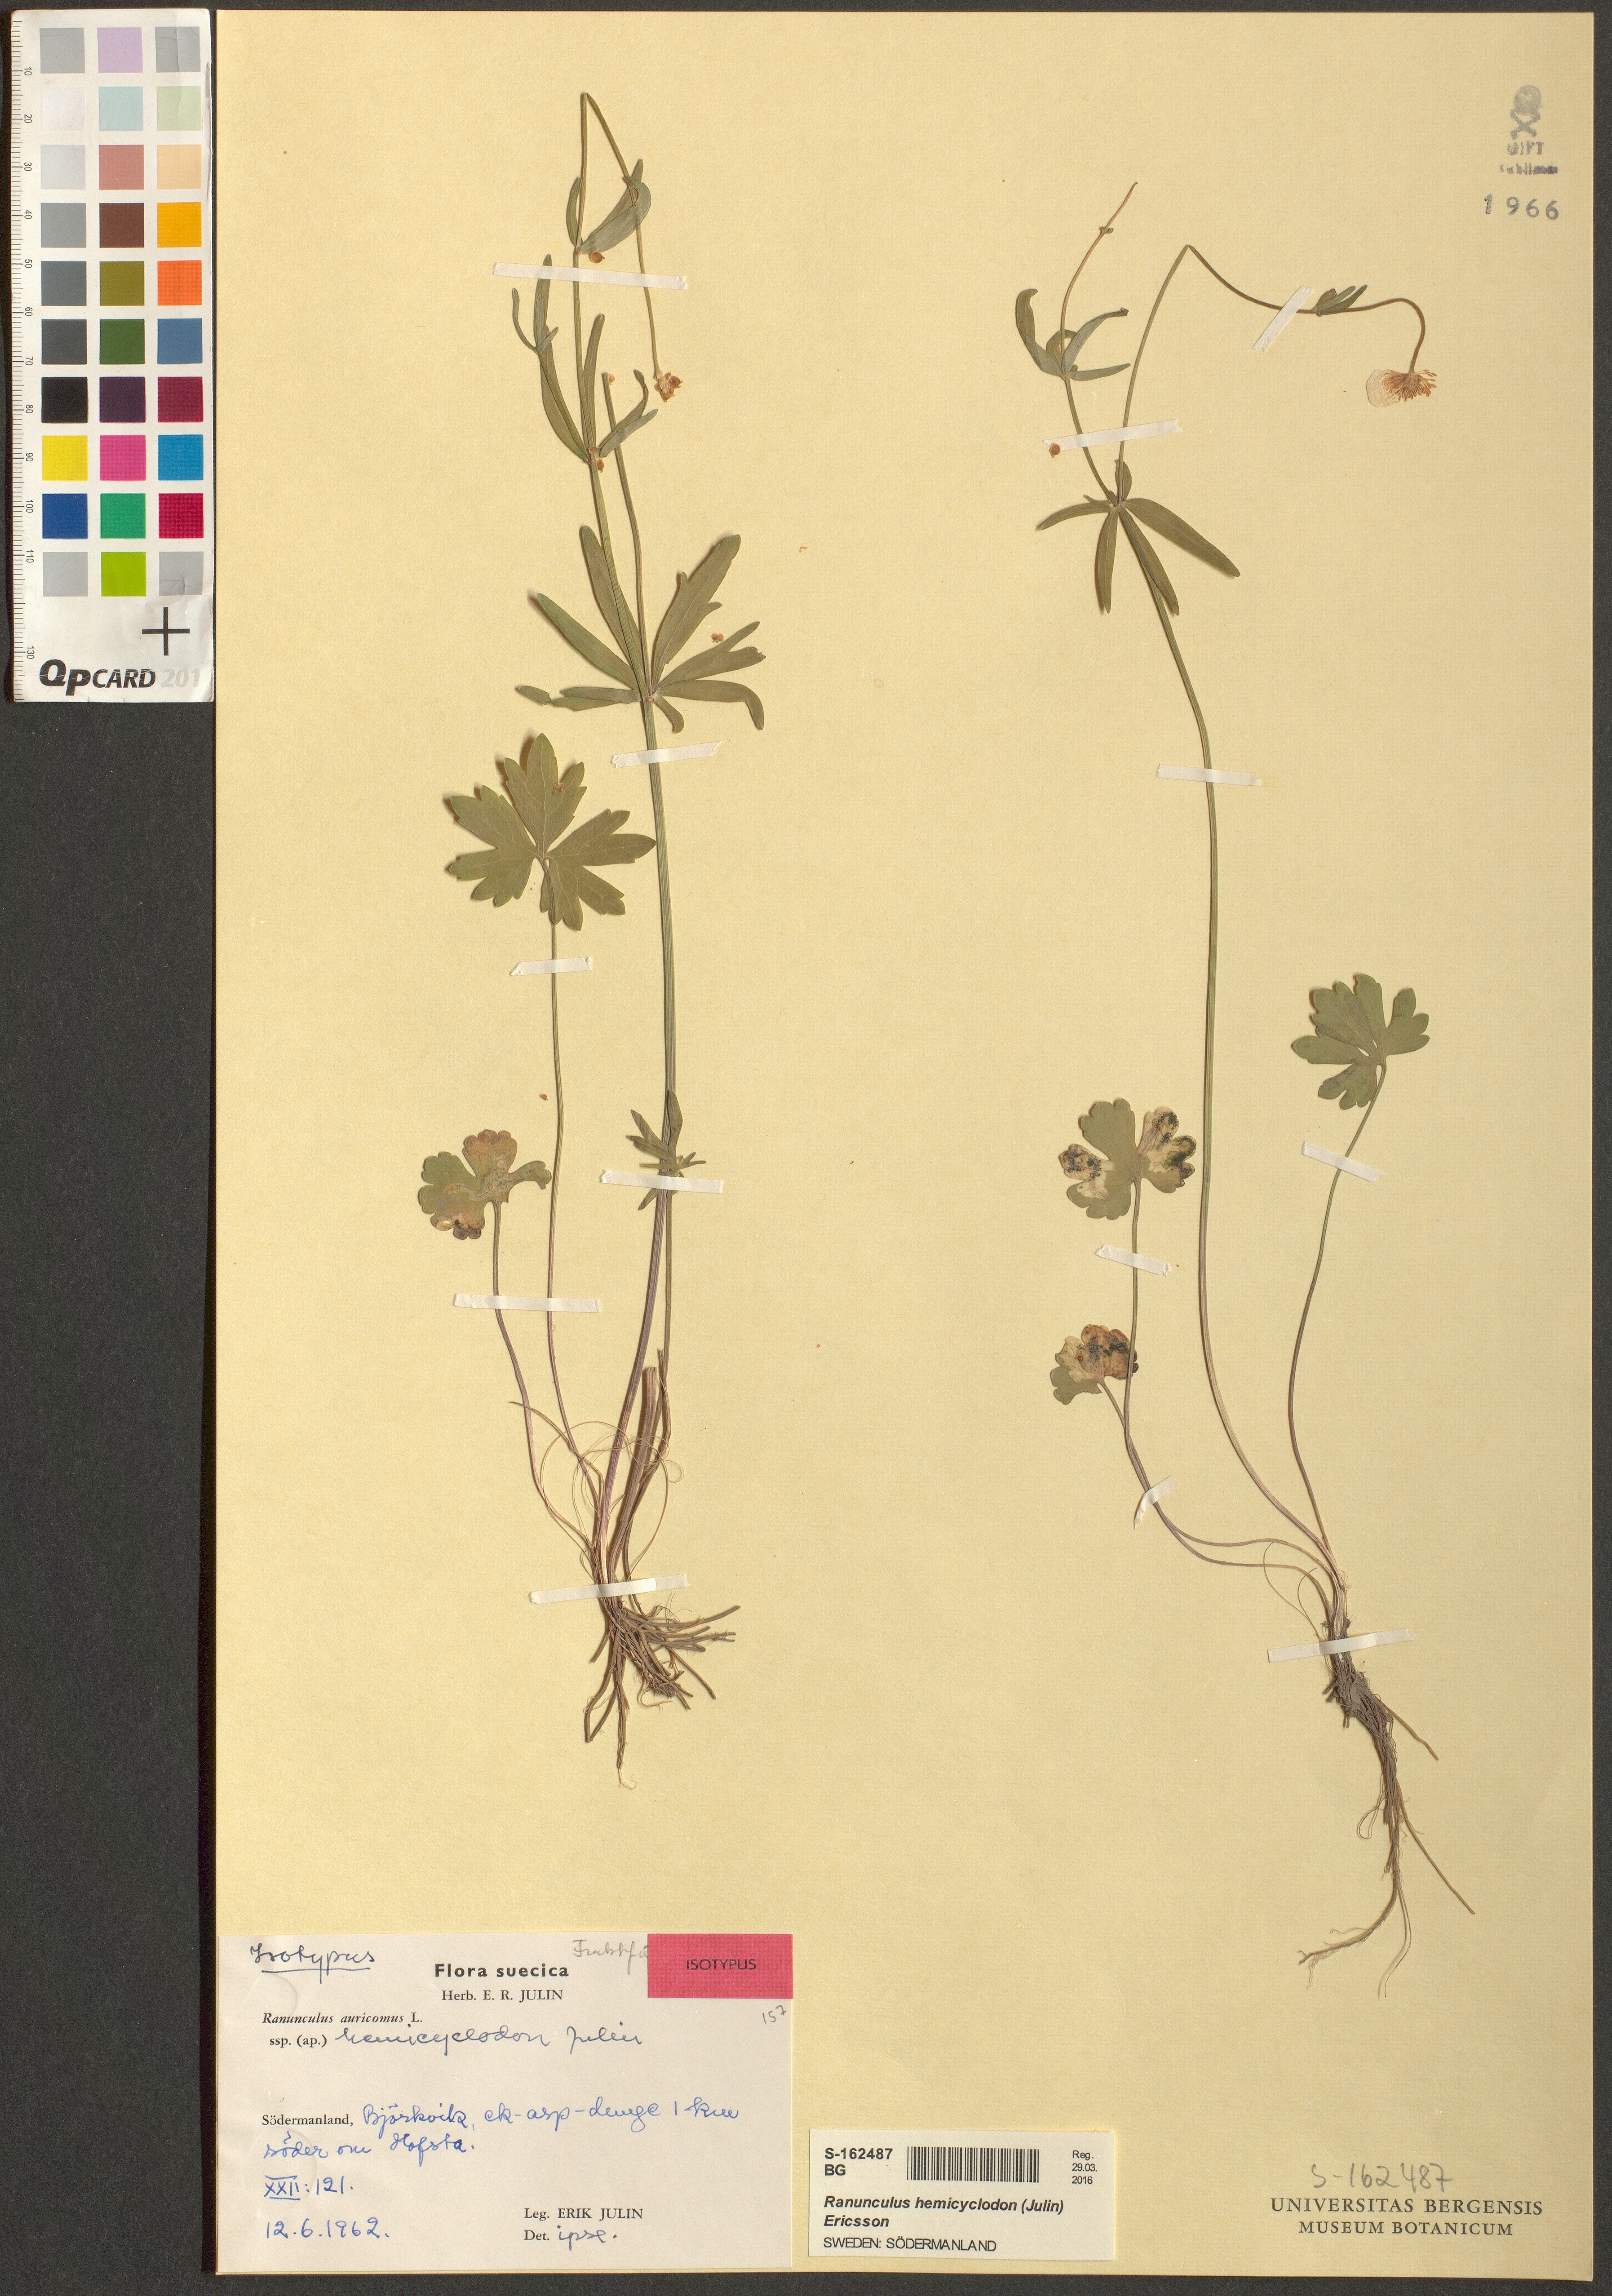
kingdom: Plantae
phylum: Tracheophyta
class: Magnoliopsida
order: Ranunculales
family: Ranunculaceae
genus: Ranunculus
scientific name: Ranunculus hemicyclodon
